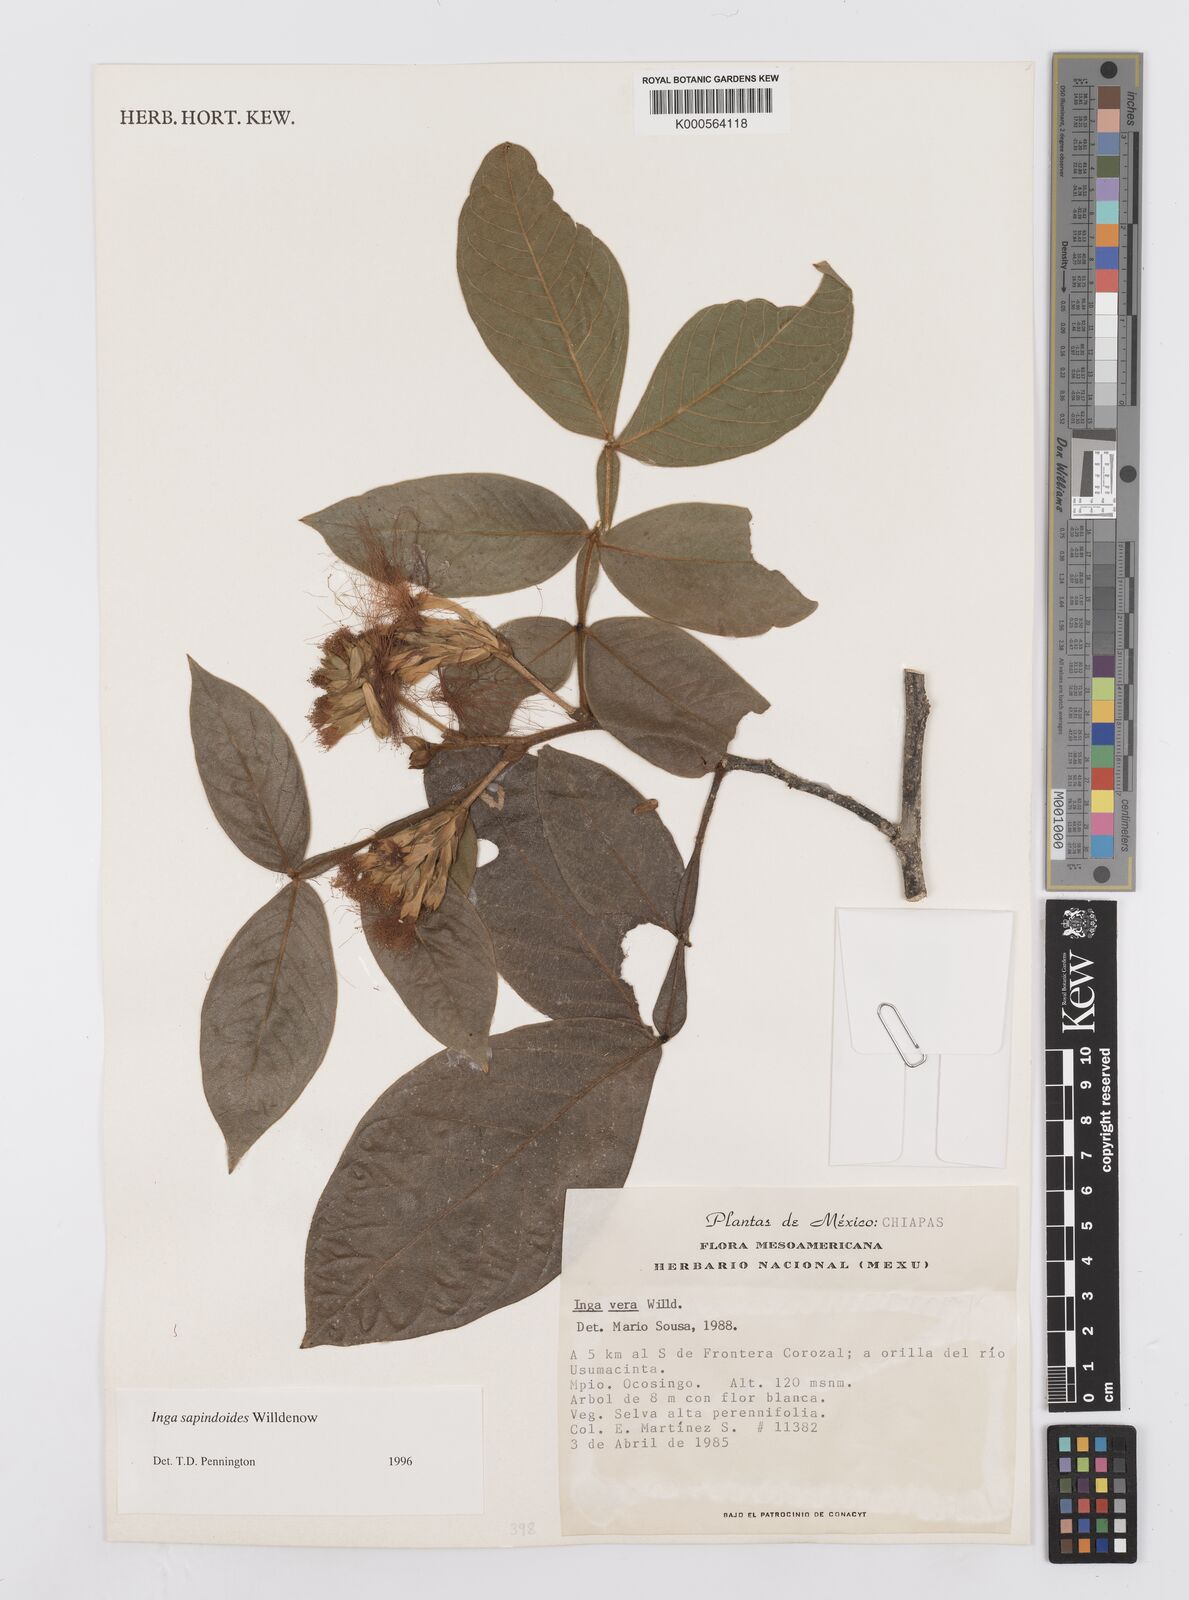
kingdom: Plantae
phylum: Tracheophyta
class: Magnoliopsida
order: Fabales
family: Fabaceae
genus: Inga
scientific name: Inga sapindoides
